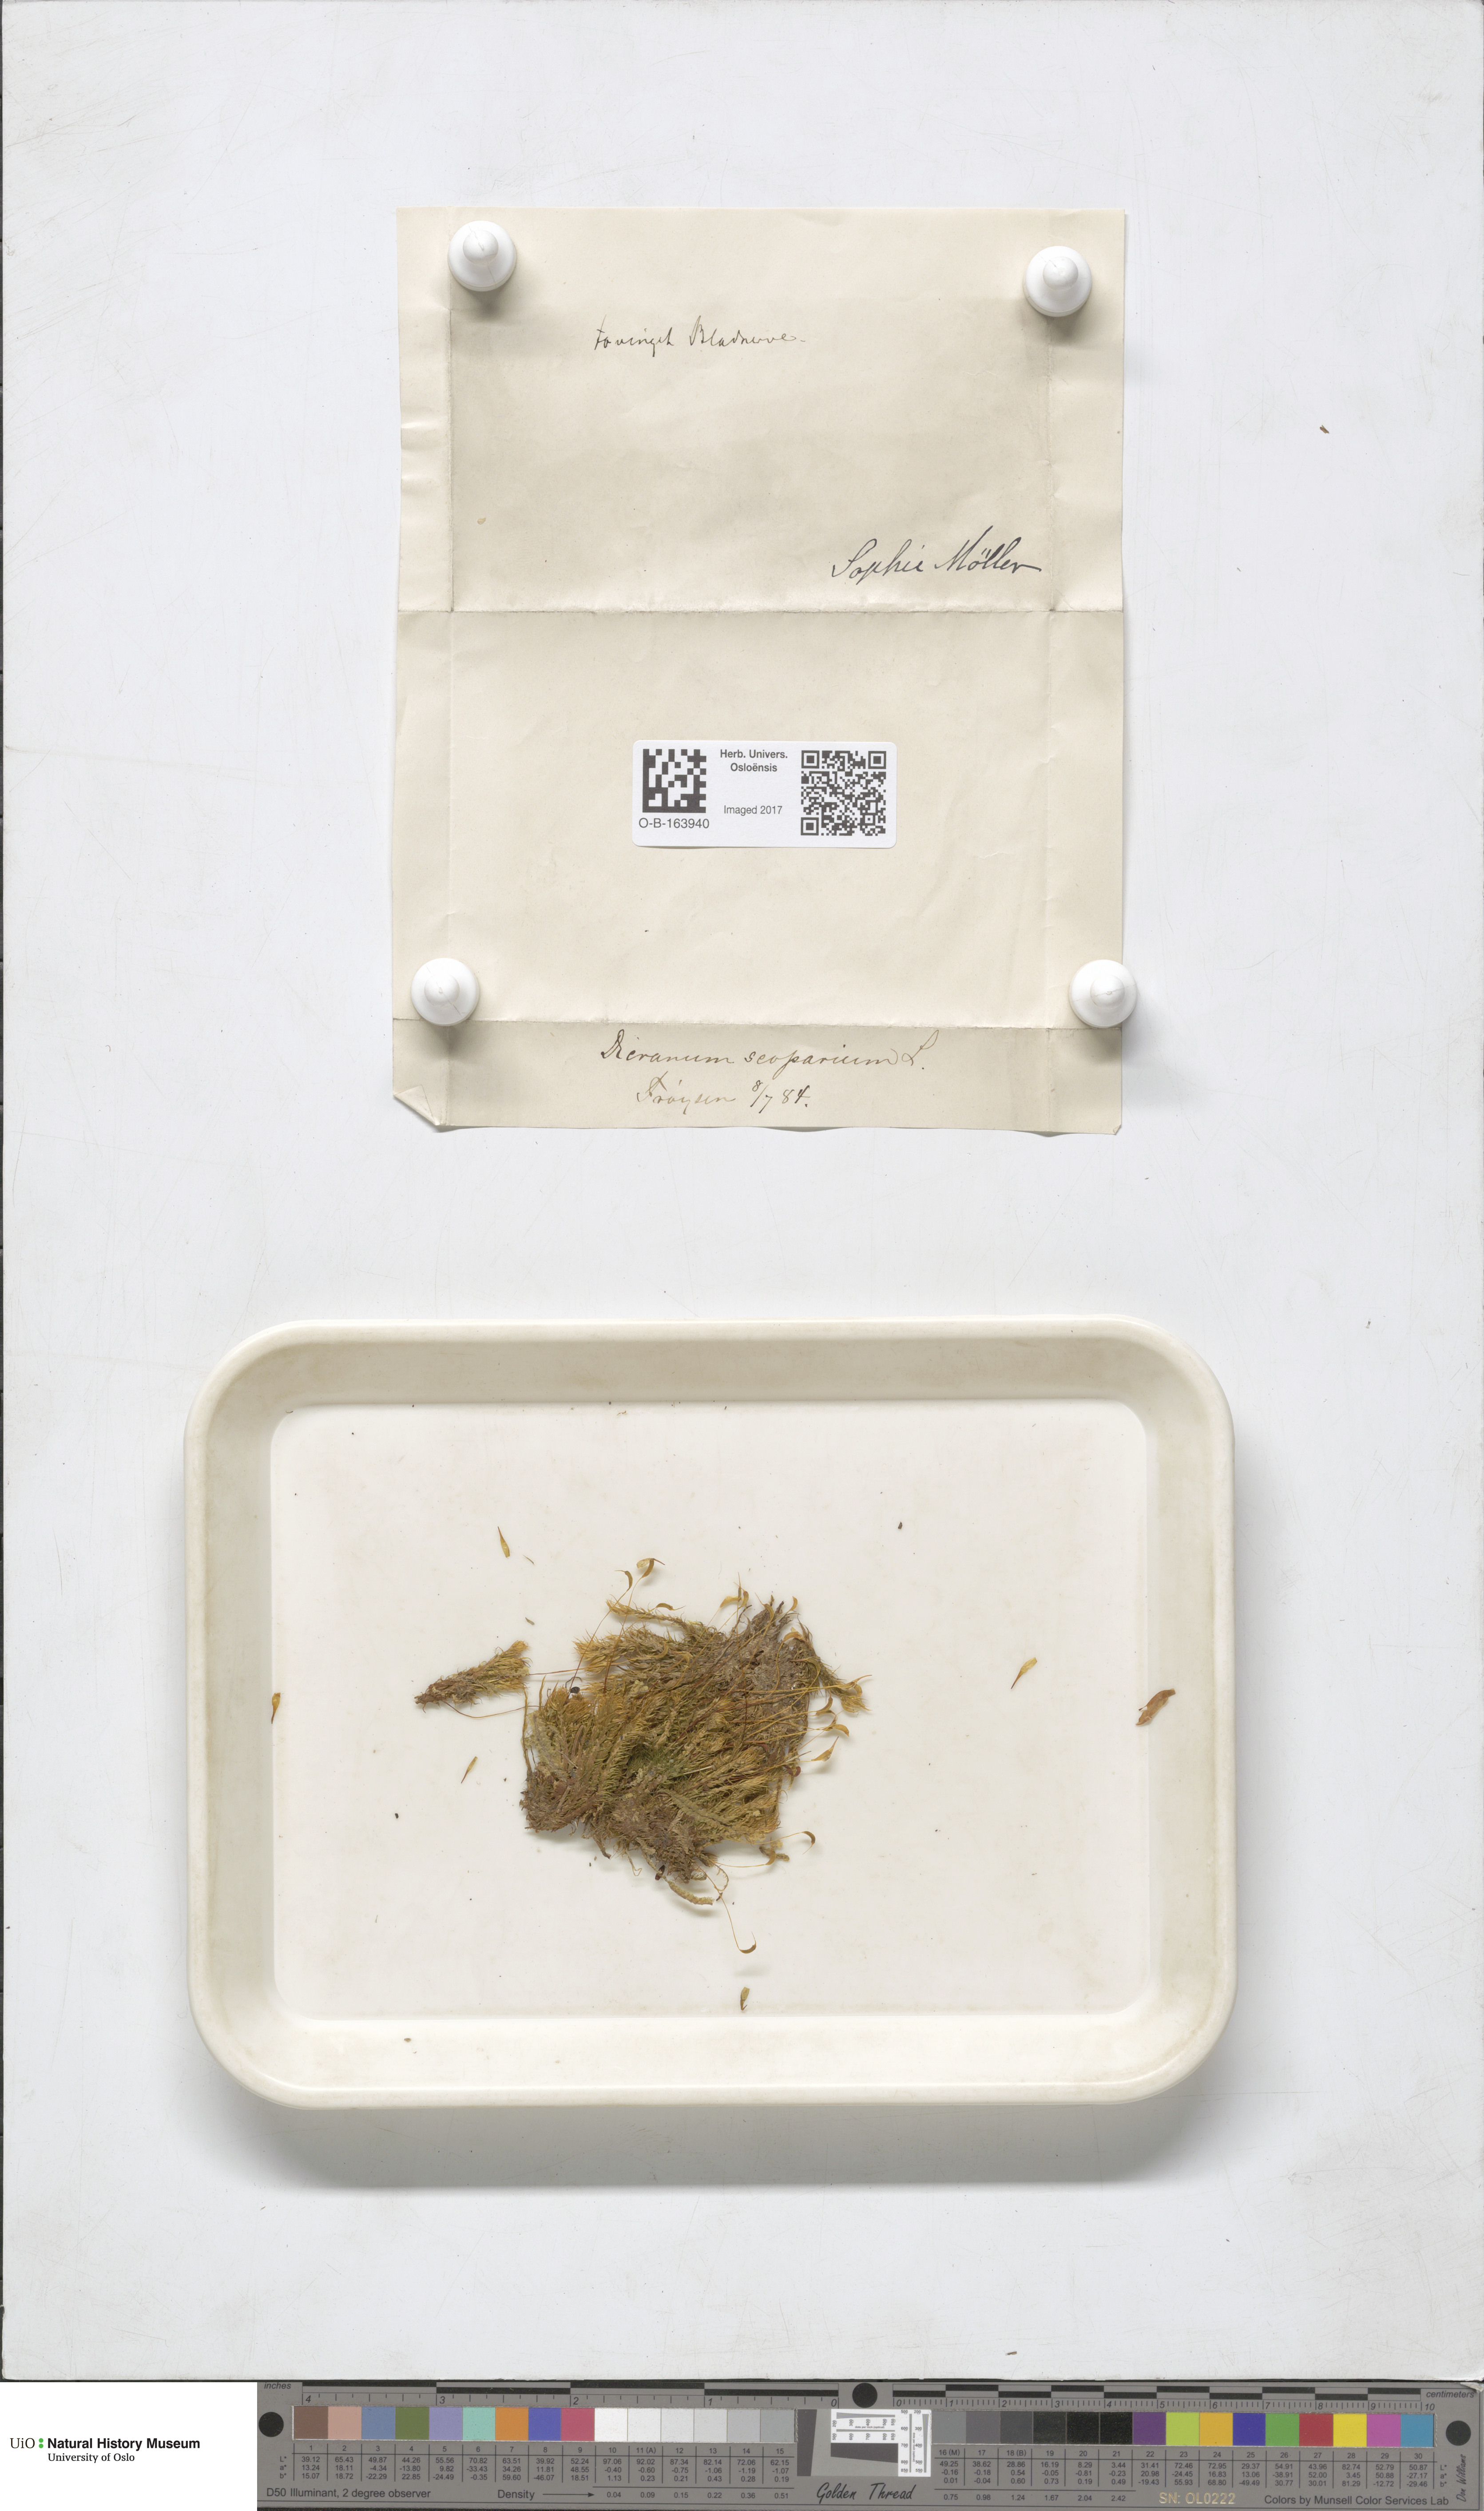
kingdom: Plantae
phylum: Bryophyta
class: Bryopsida
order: Dicranales
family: Dicranaceae
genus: Dicranum
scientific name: Dicranum scoparium
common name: Broom fork-moss
